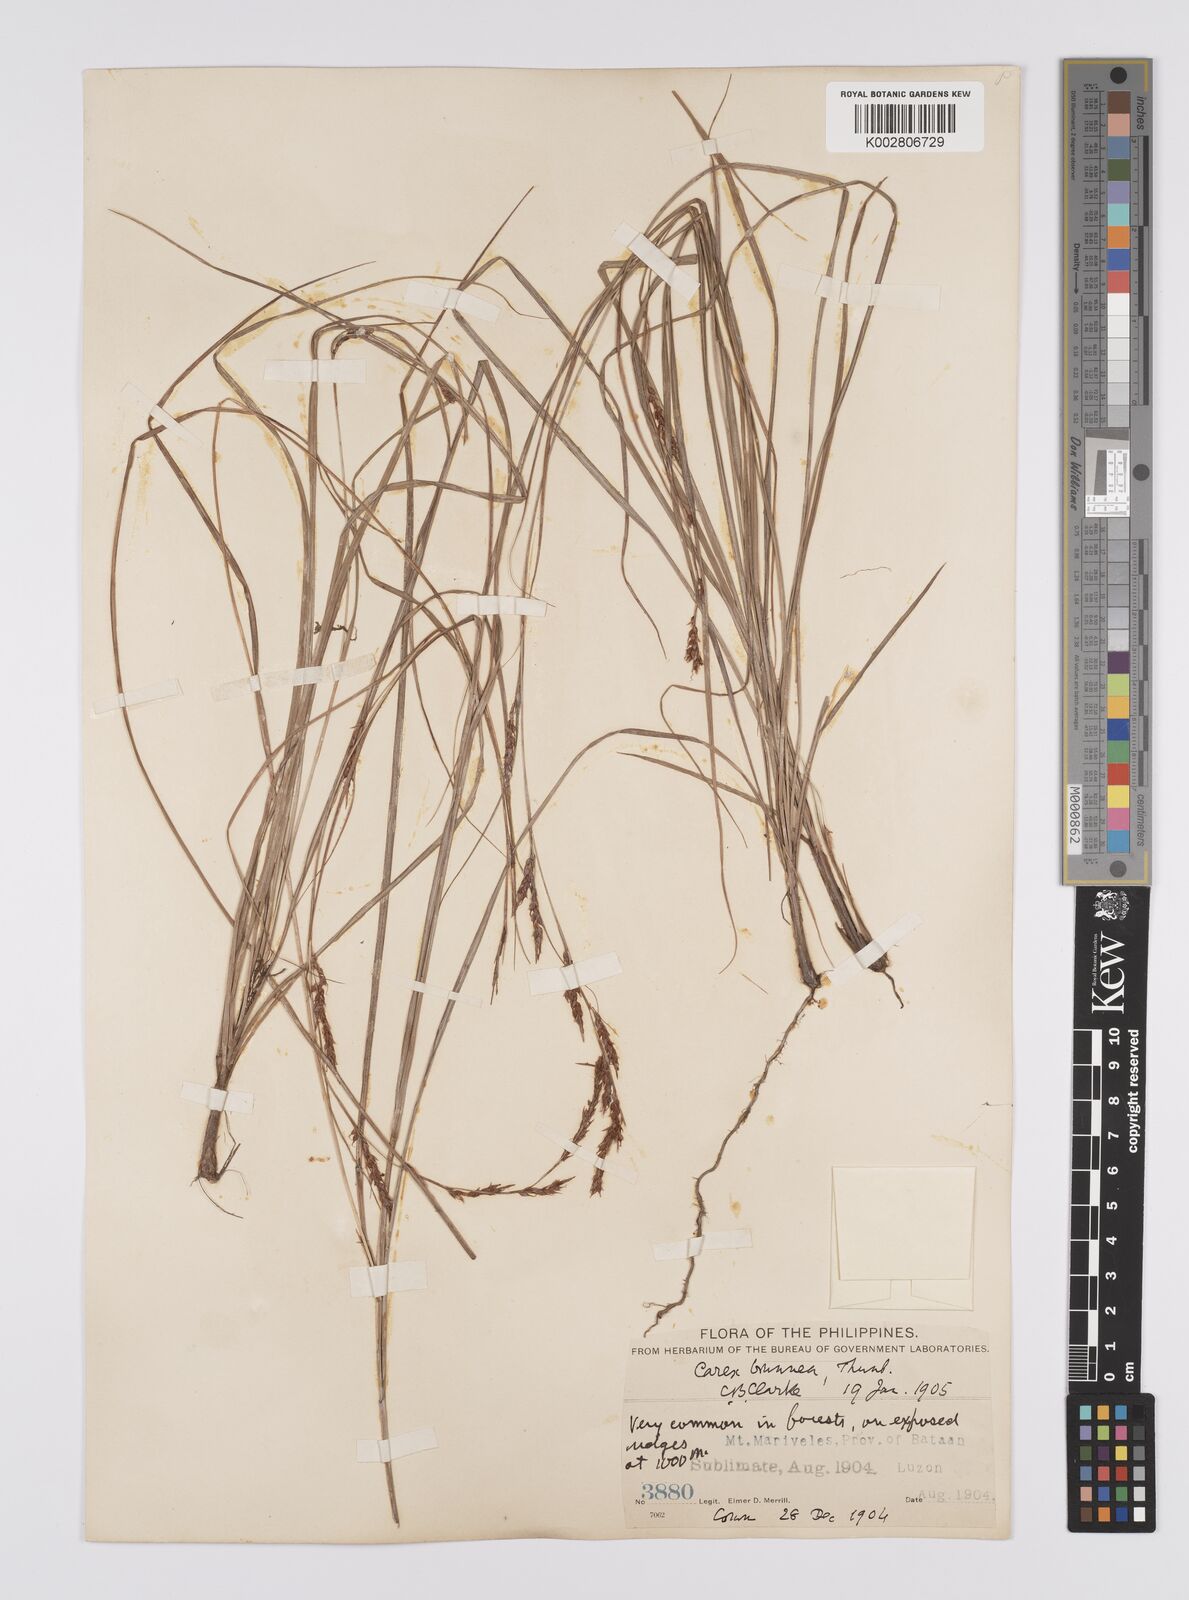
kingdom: Plantae
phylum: Tracheophyta
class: Liliopsida
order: Poales
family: Cyperaceae
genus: Carex
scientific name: Carex brunnea
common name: Greater brown sedge
